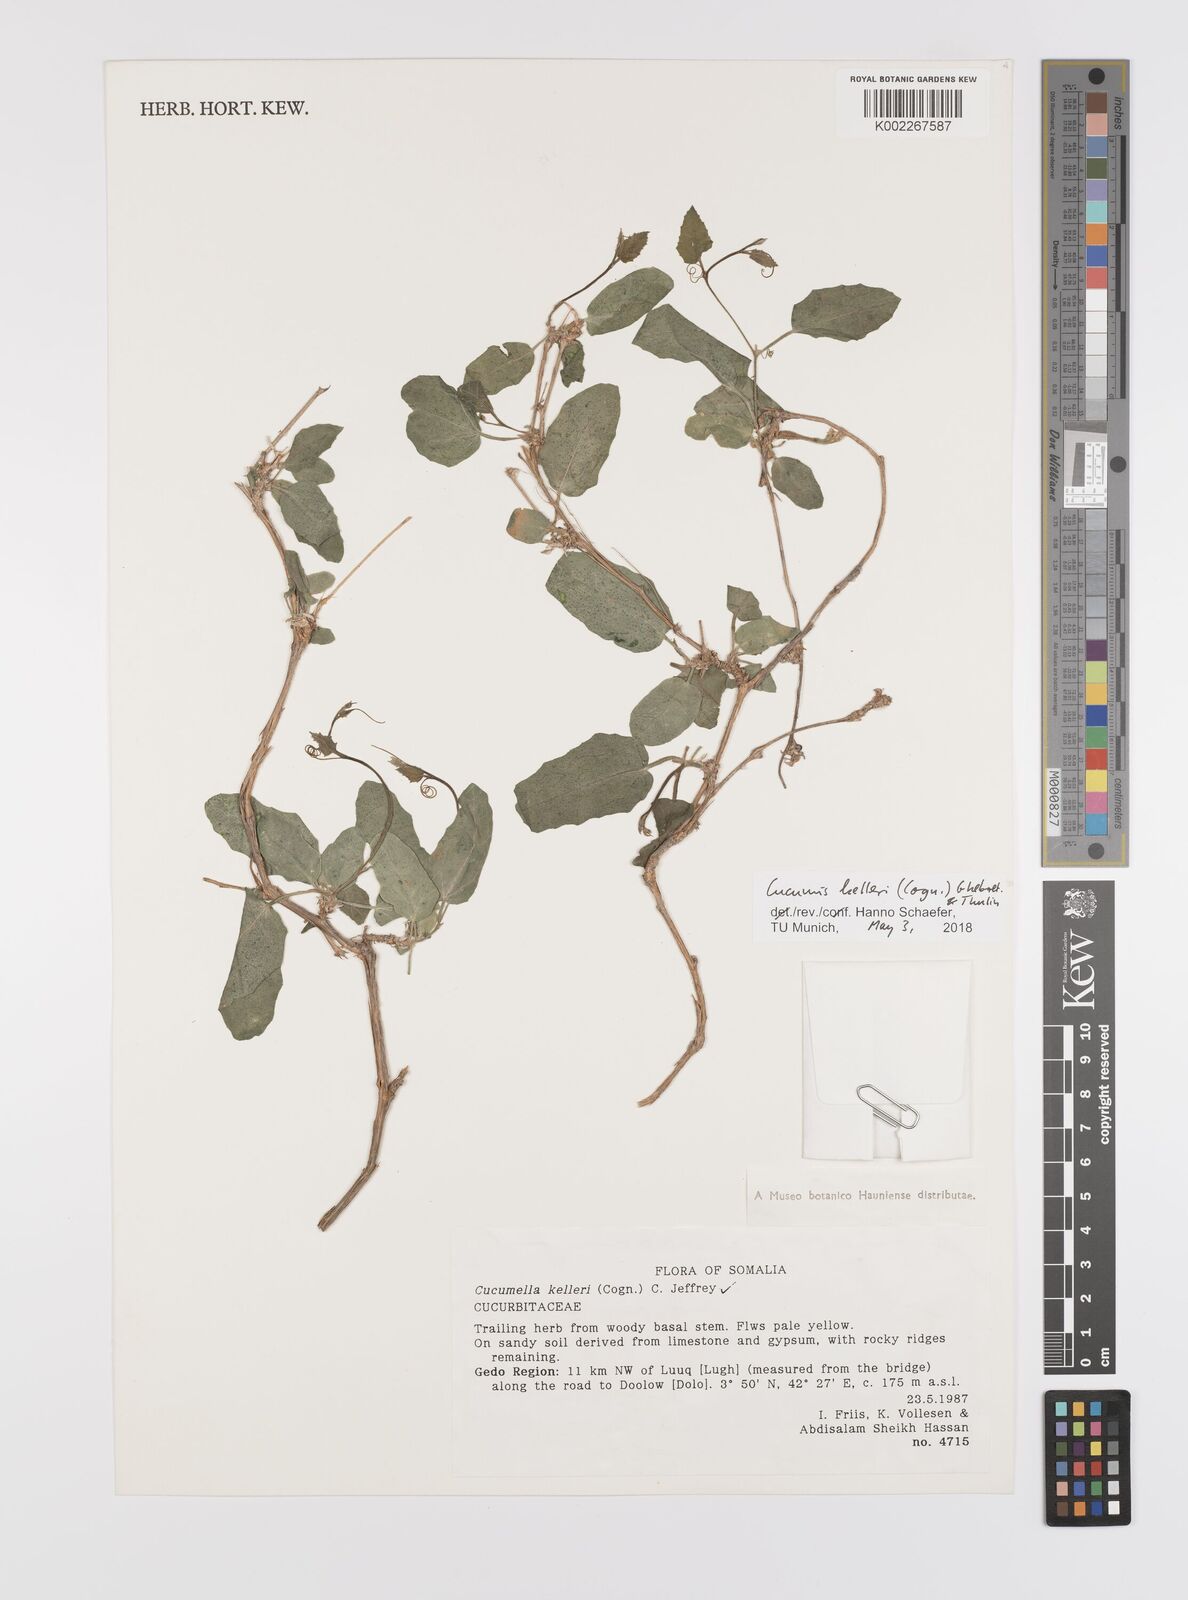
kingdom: Plantae
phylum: Tracheophyta
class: Magnoliopsida
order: Cucurbitales
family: Cucurbitaceae
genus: Cucumis
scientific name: Cucumis kelleri
